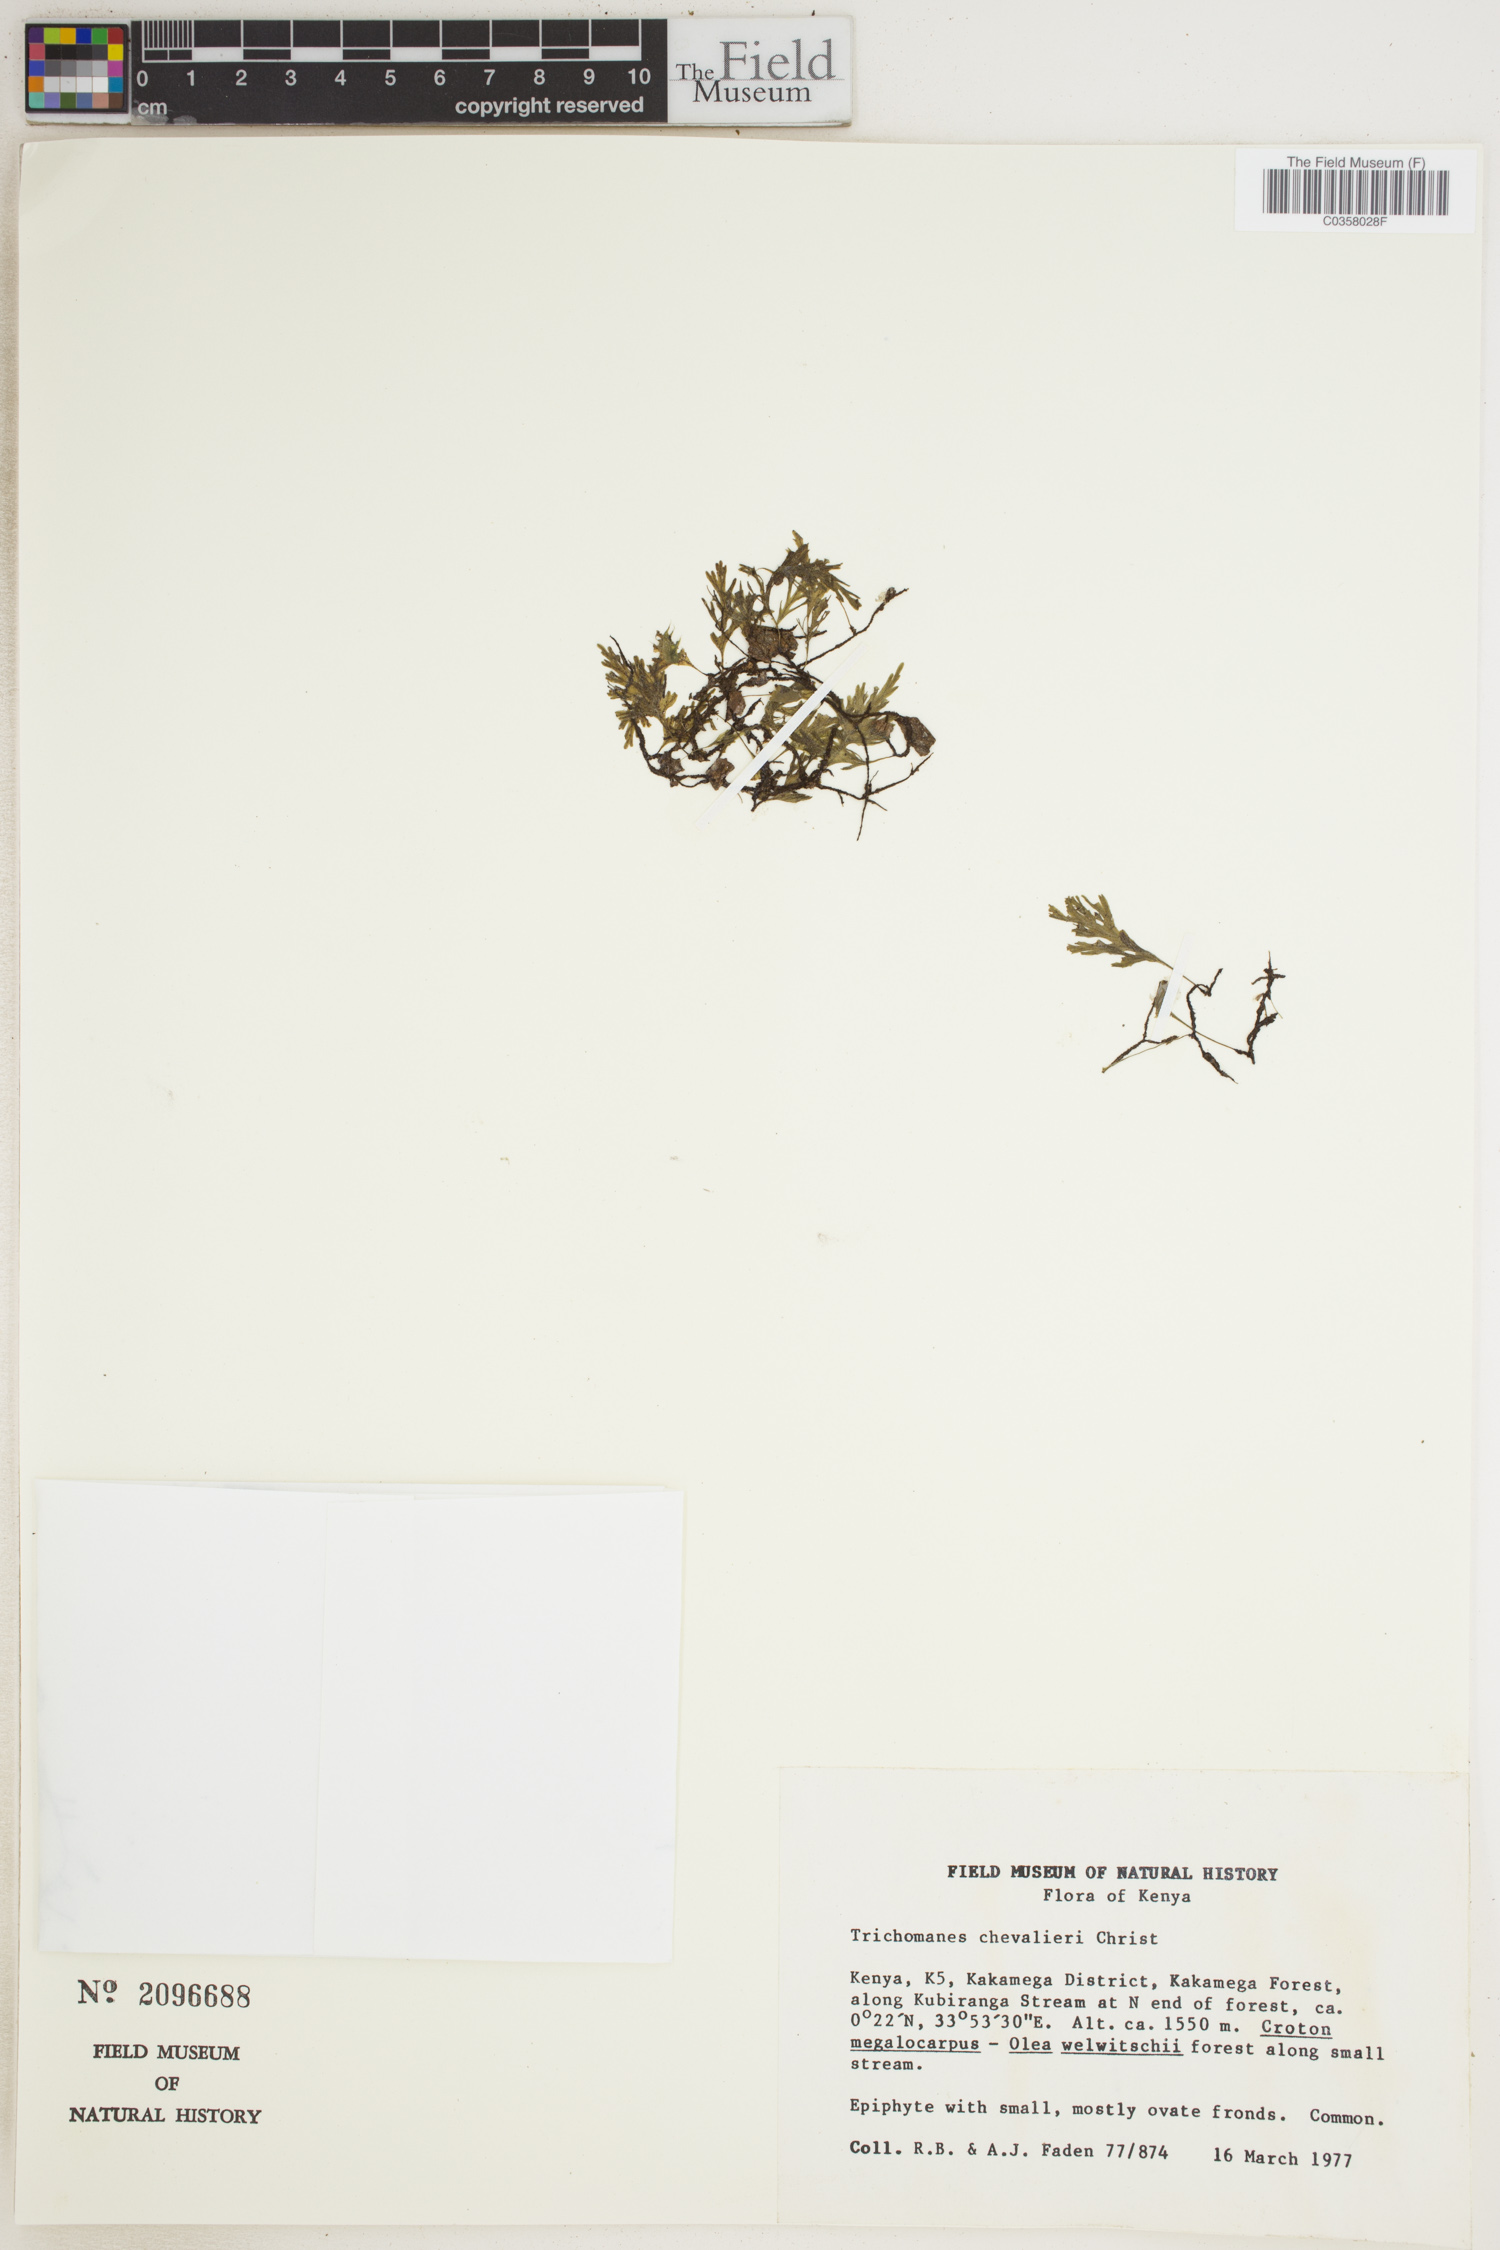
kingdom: Plantae
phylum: Tracheophyta
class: Polypodiopsida
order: Hymenophyllales
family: Hymenophyllaceae
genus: Crepidomanes
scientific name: Crepidomanes chevalieri
